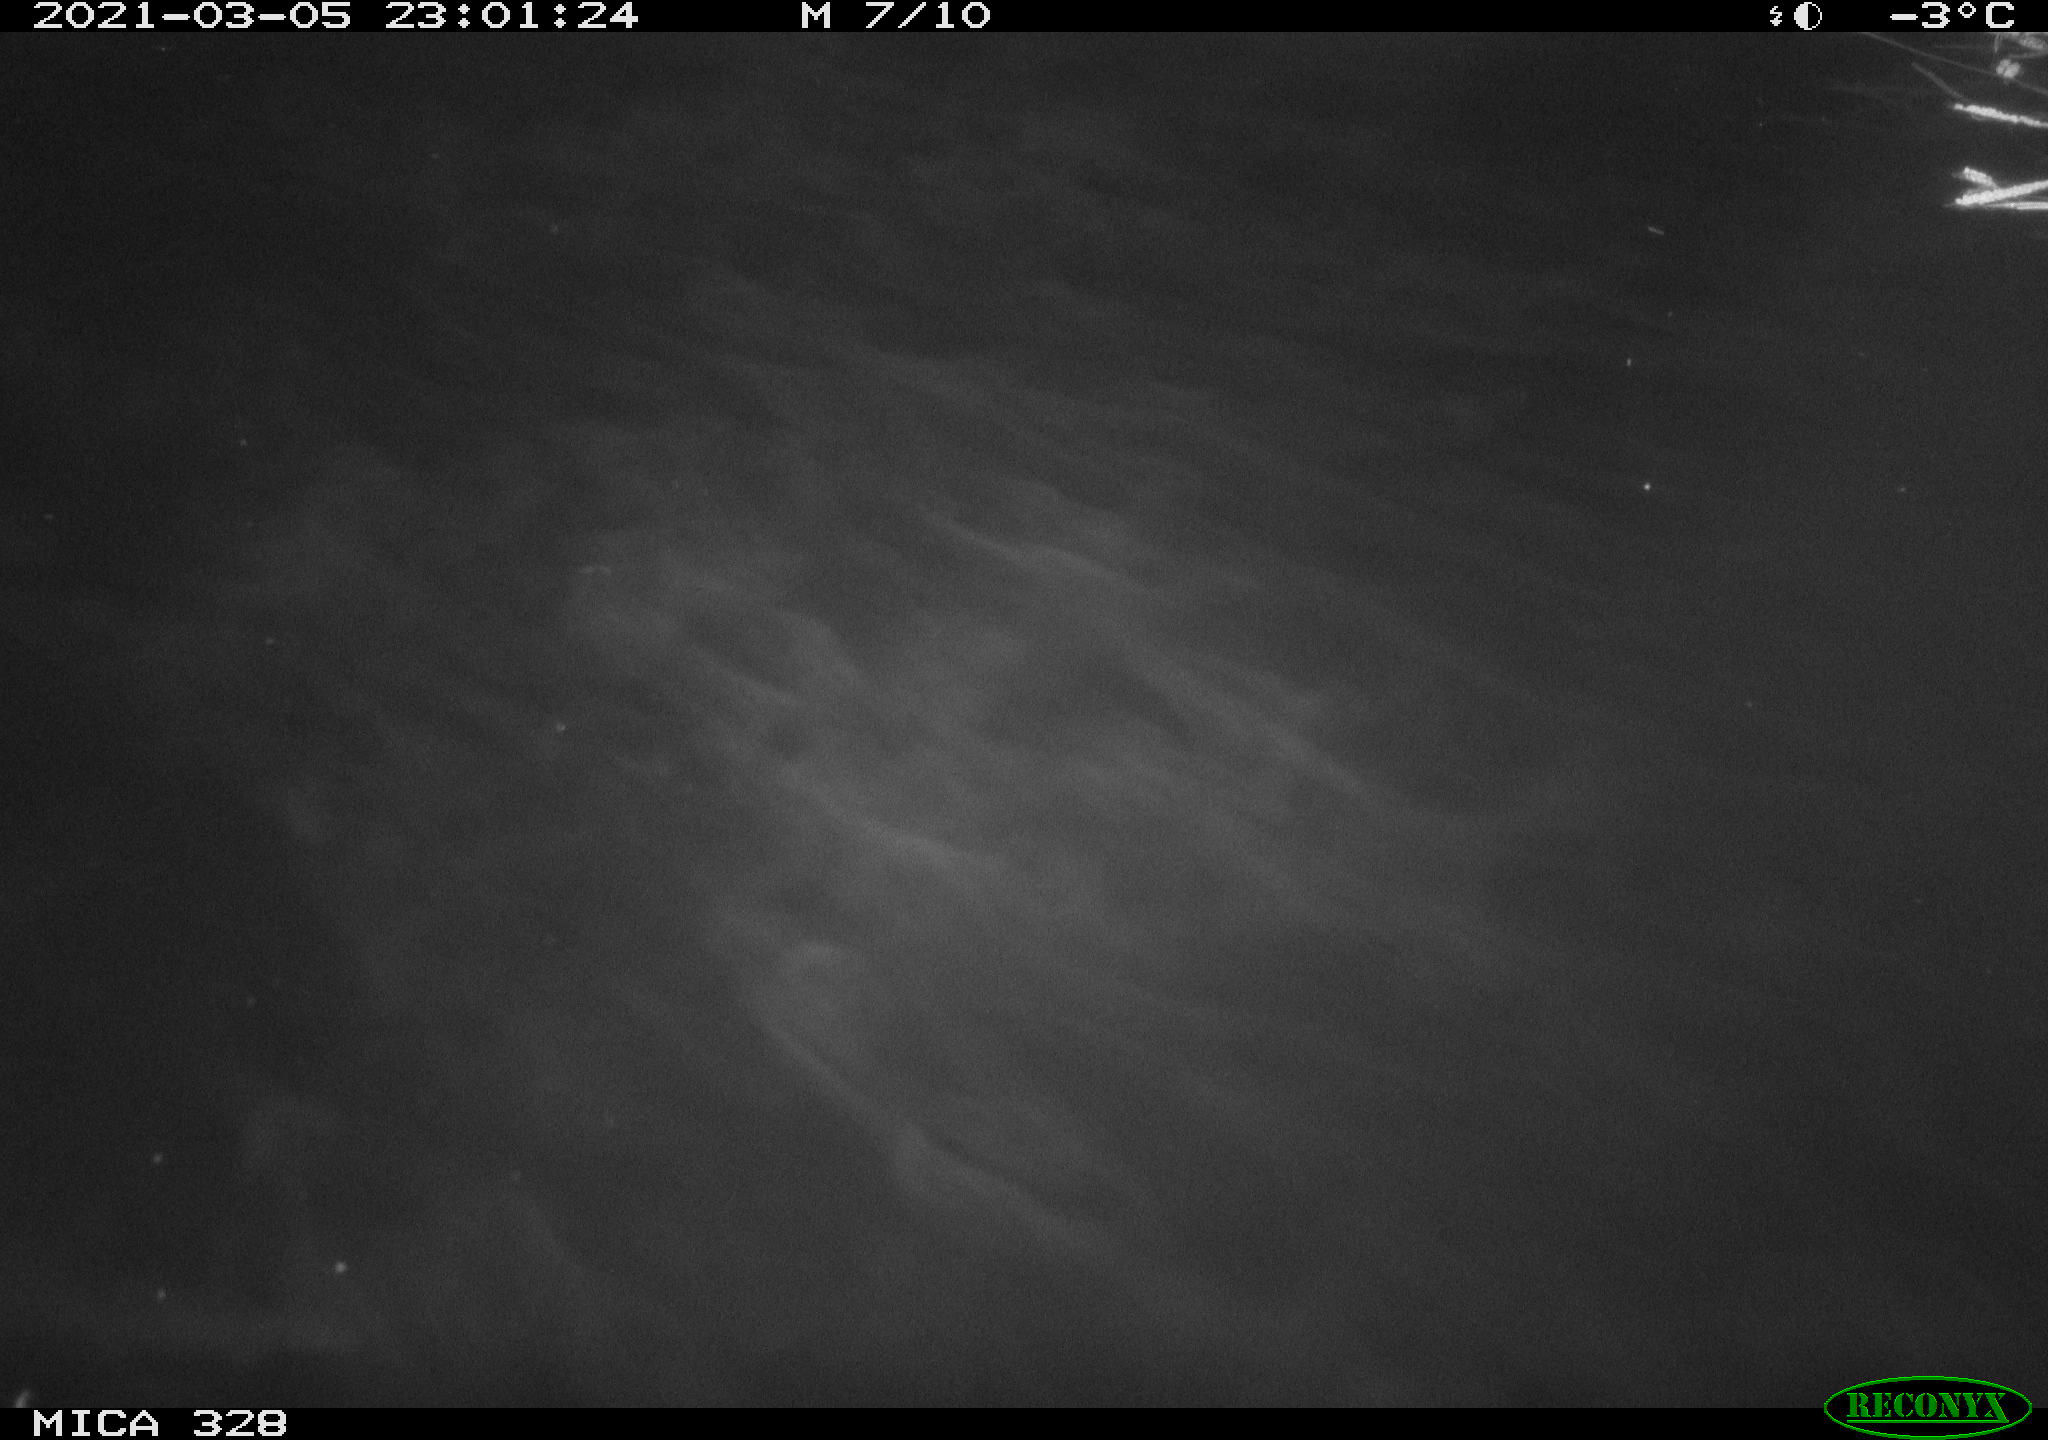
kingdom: Animalia
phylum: Chordata
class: Mammalia
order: Rodentia
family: Cricetidae
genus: Ondatra
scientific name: Ondatra zibethicus
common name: Muskrat
